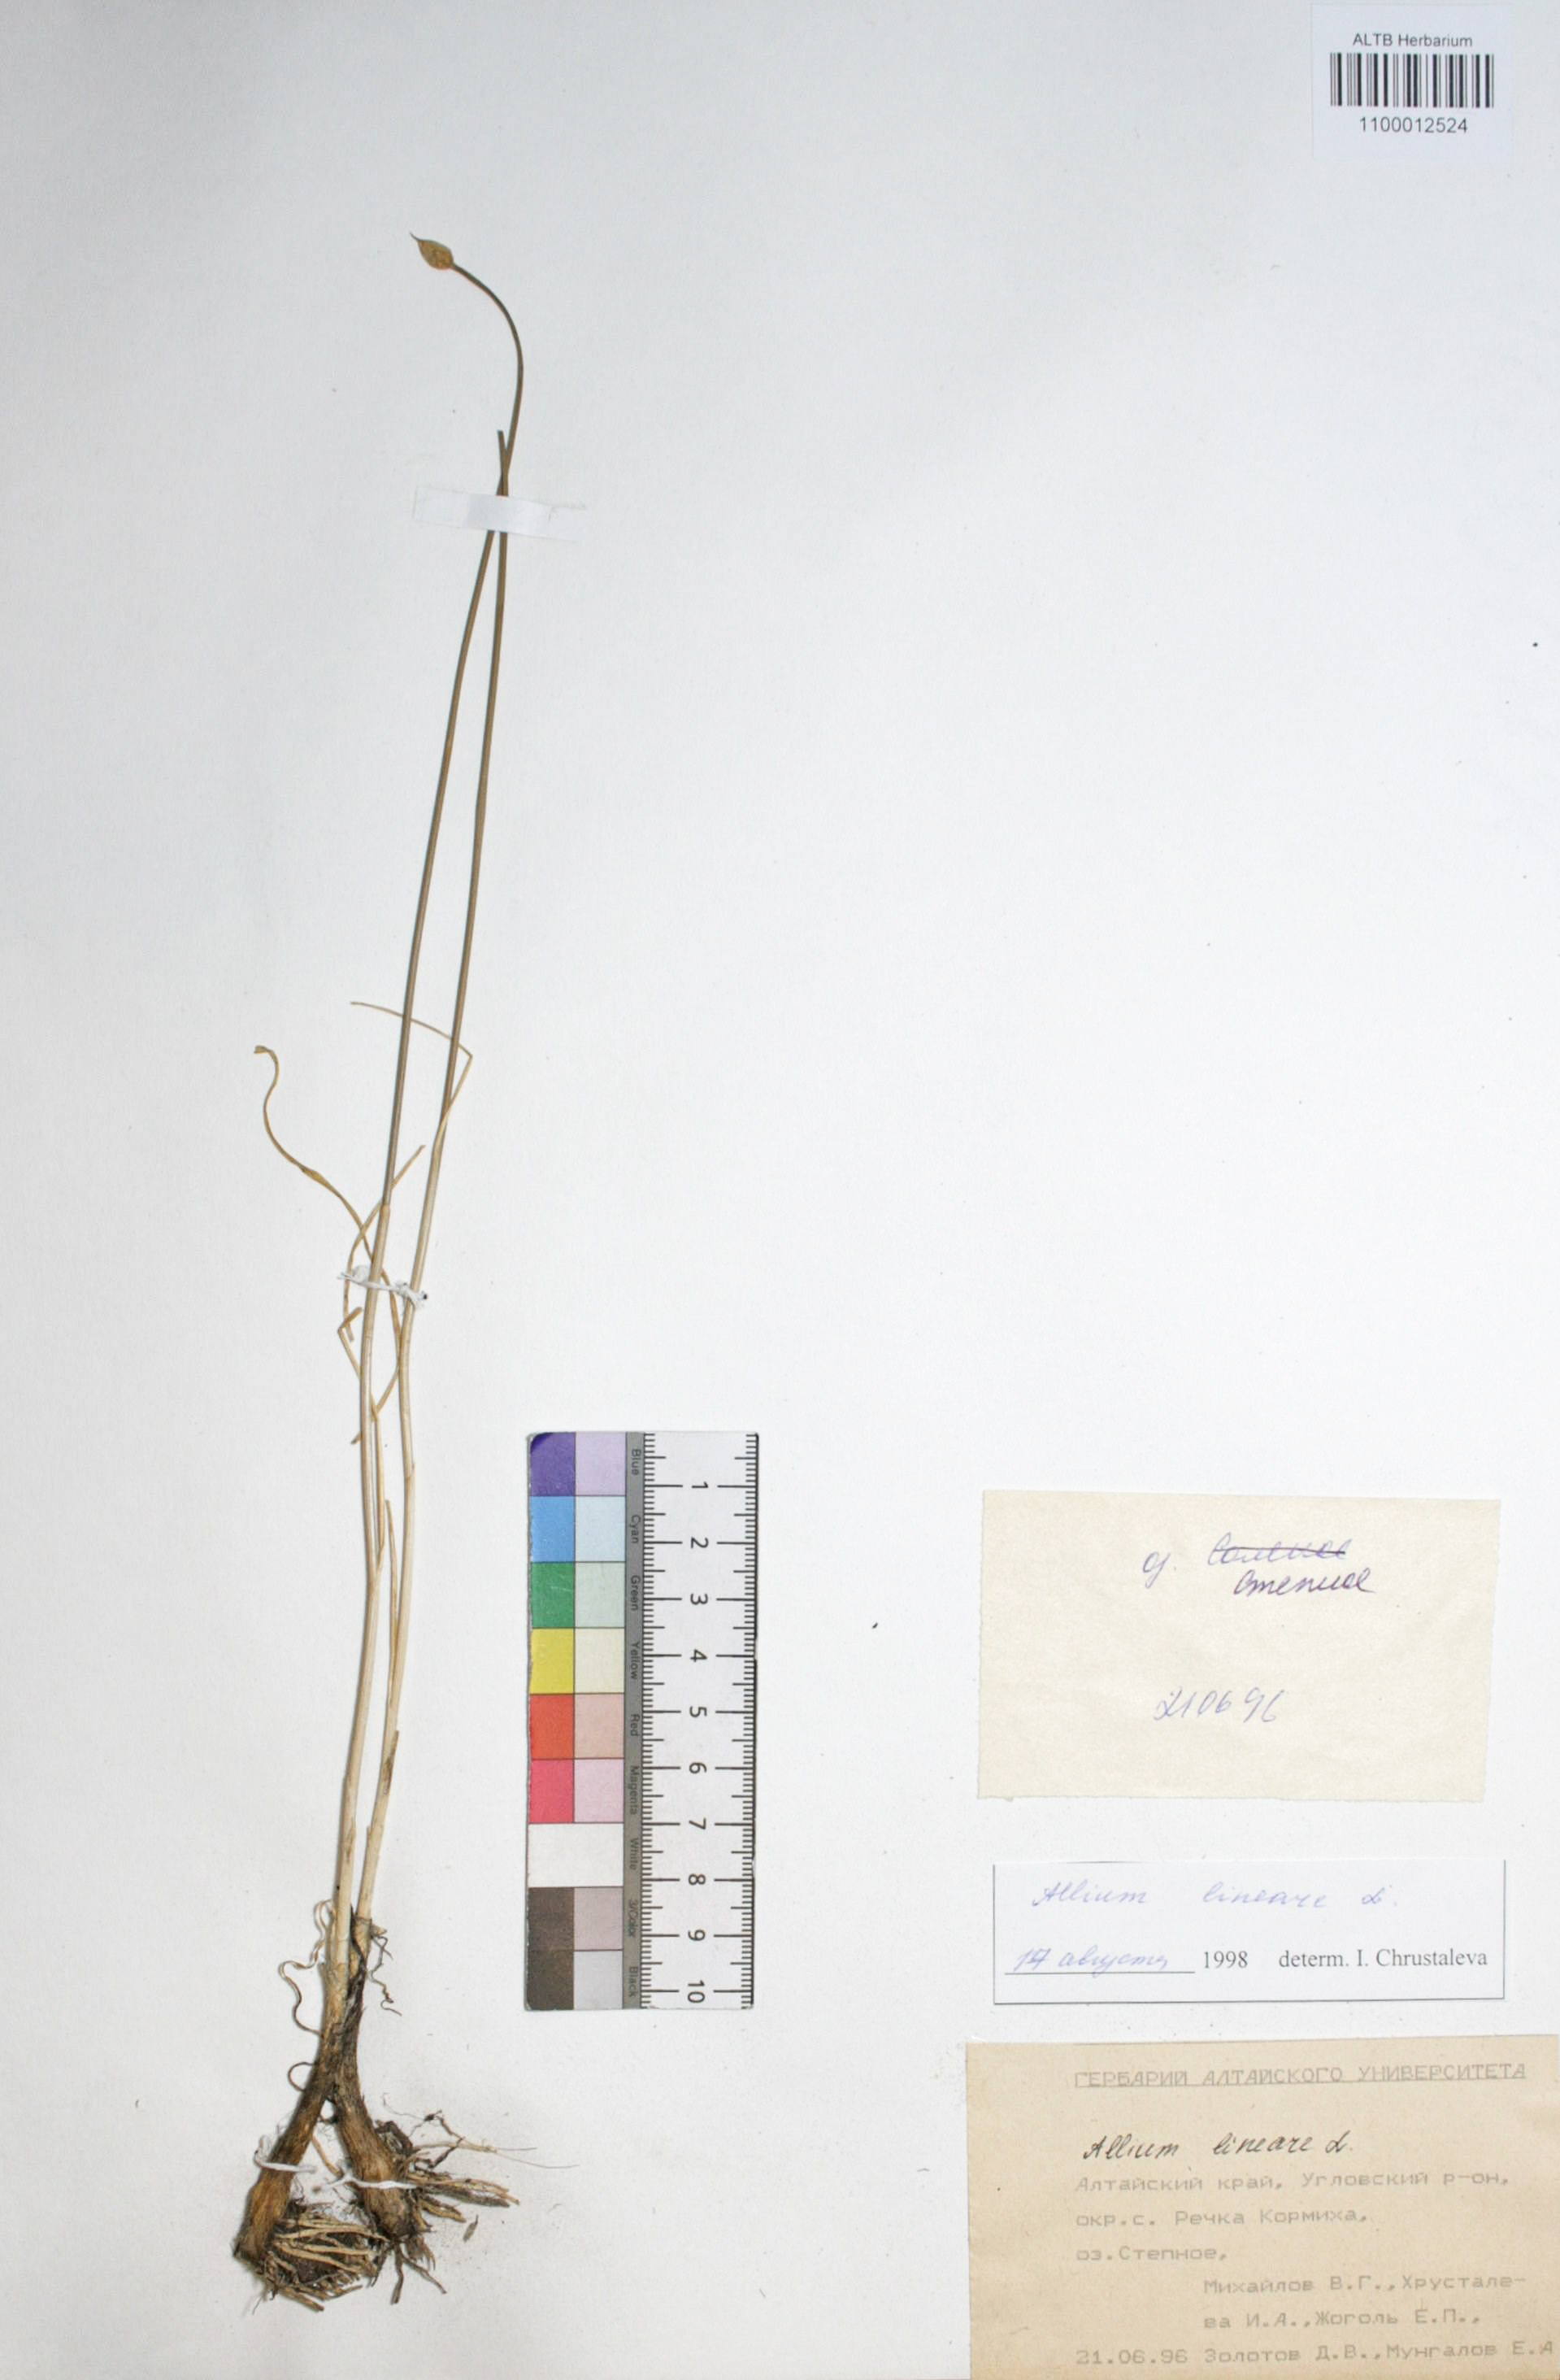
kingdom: Plantae
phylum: Tracheophyta
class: Liliopsida
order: Asparagales
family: Amaryllidaceae
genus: Allium
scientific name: Allium lineare
